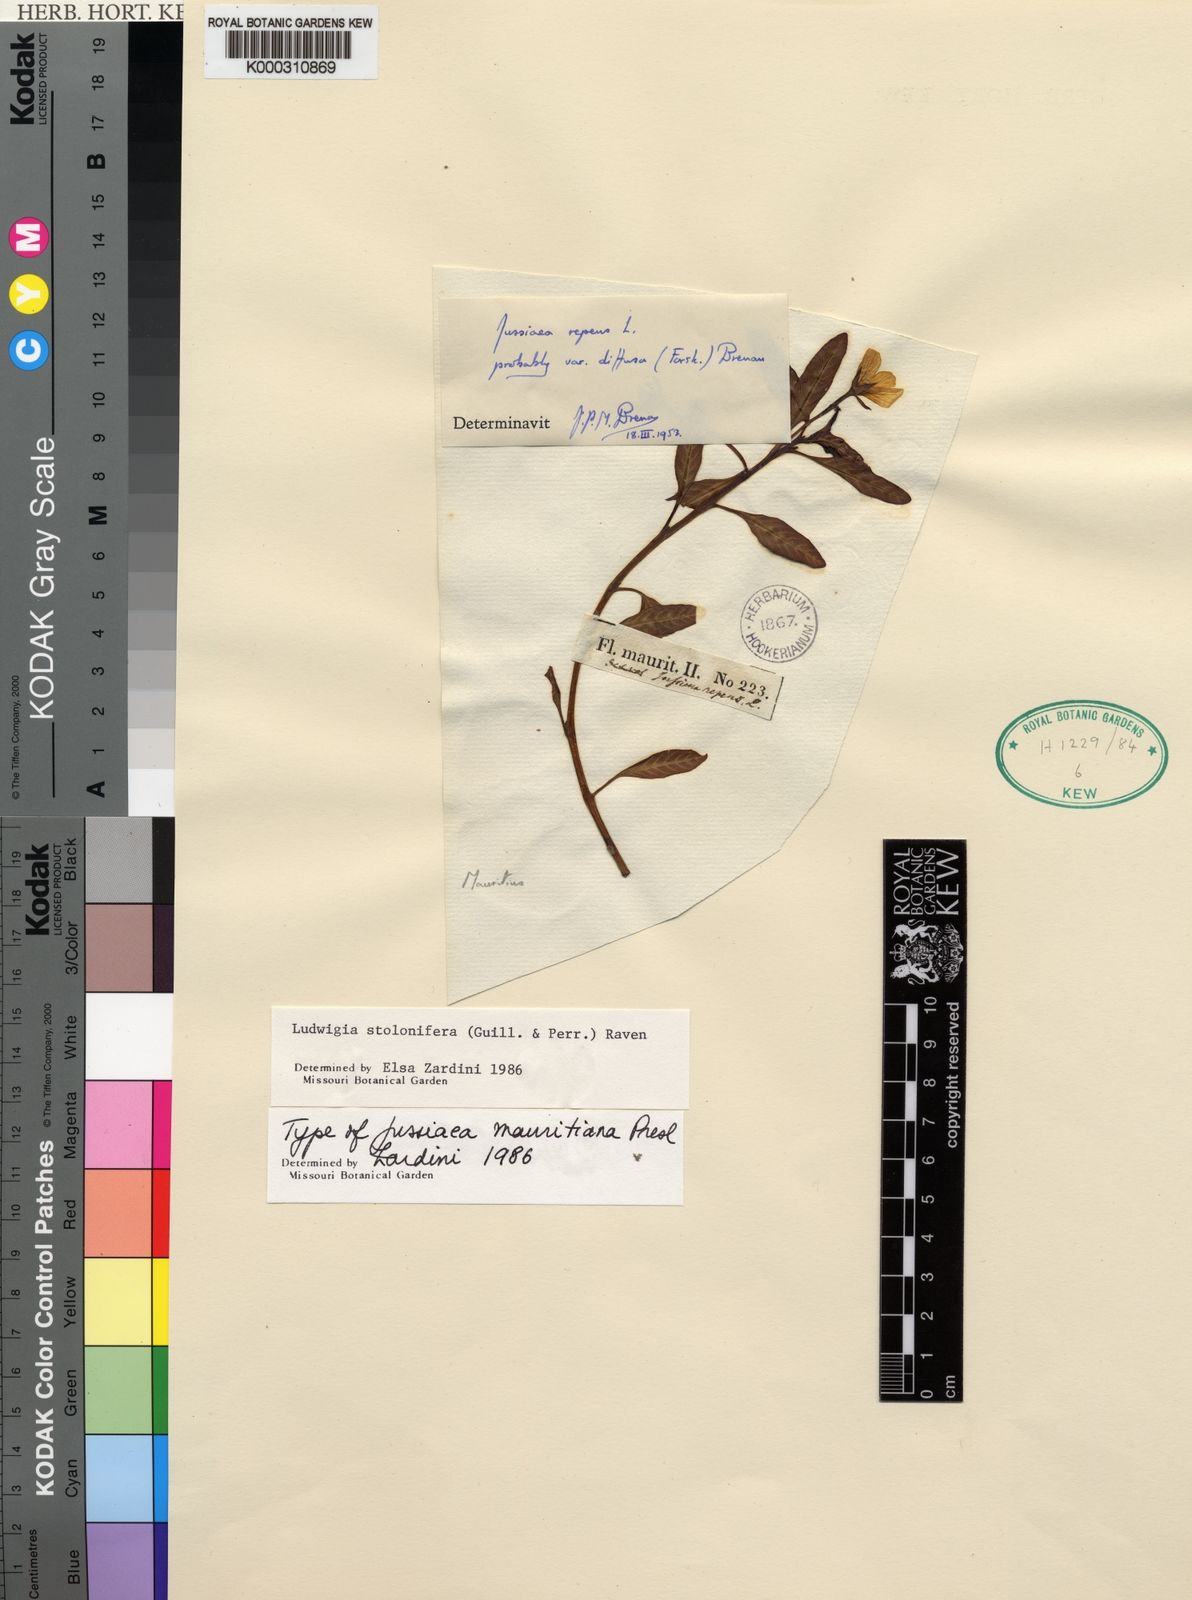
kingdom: Plantae
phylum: Tracheophyta
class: Magnoliopsida
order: Myrtales
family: Onagraceae
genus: Ludwigia
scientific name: Ludwigia adscendens
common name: Creeping water primrose
